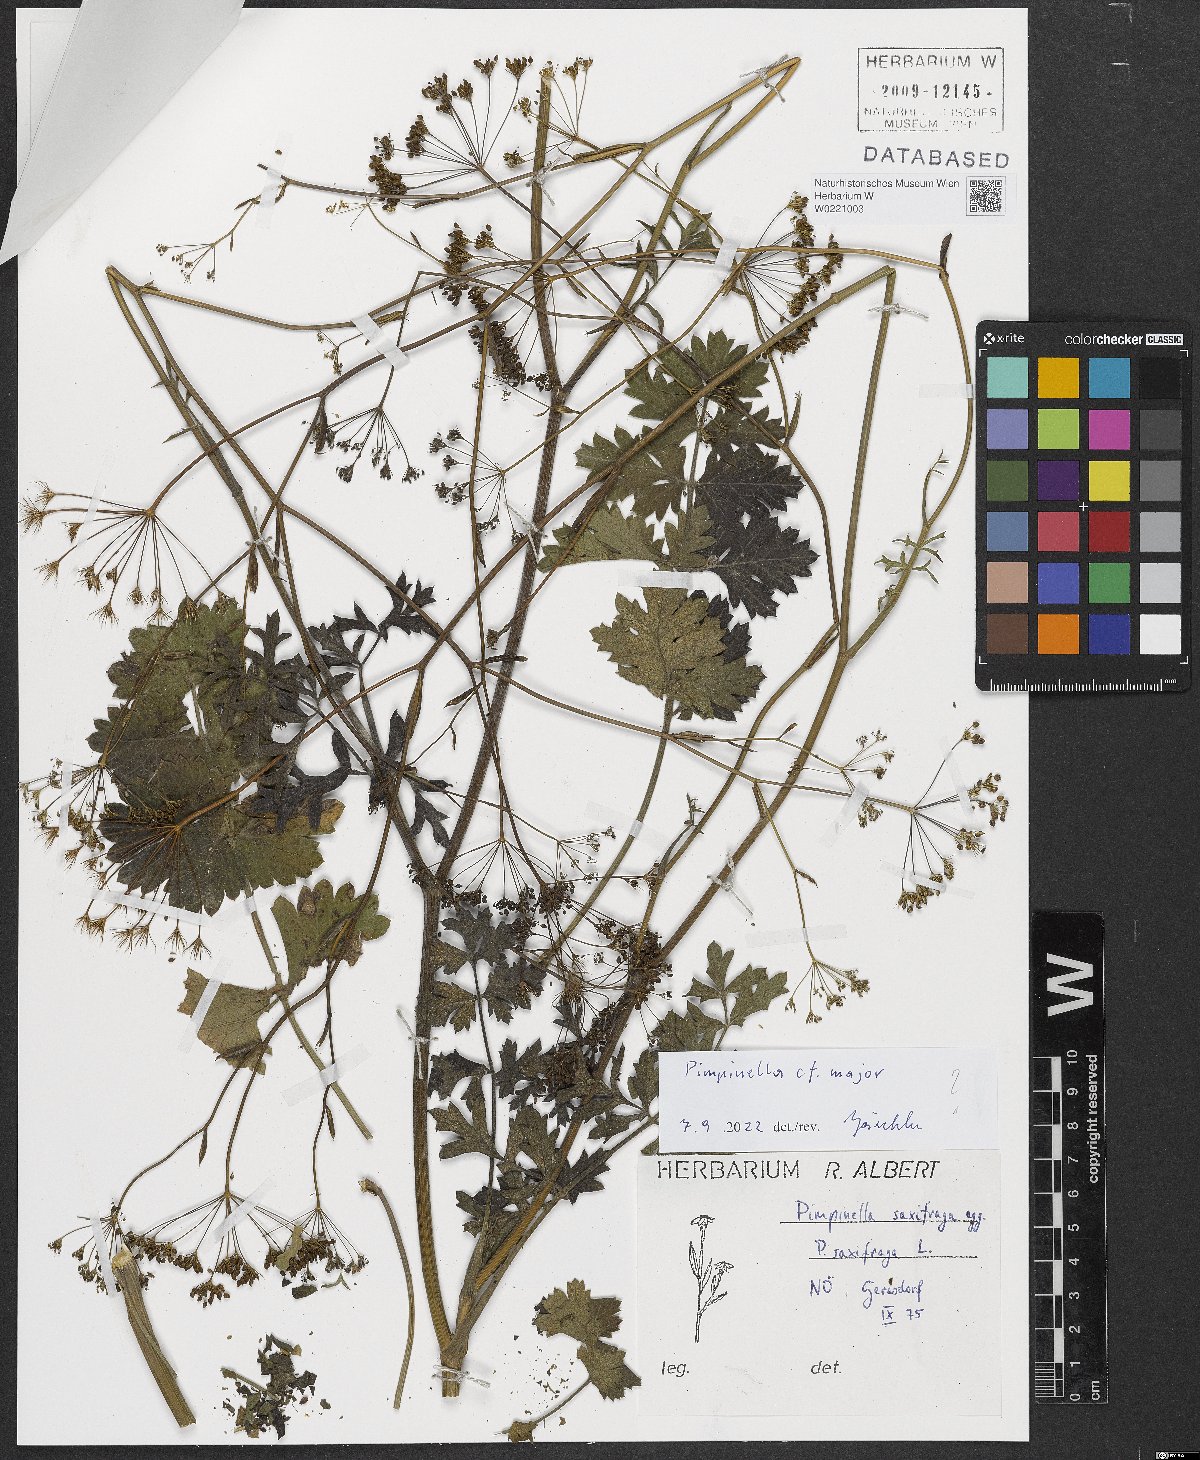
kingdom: Plantae
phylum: Tracheophyta
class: Magnoliopsida
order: Apiales
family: Apiaceae
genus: Pimpinella
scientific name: Pimpinella saxifraga
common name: Burnet-saxifrage
